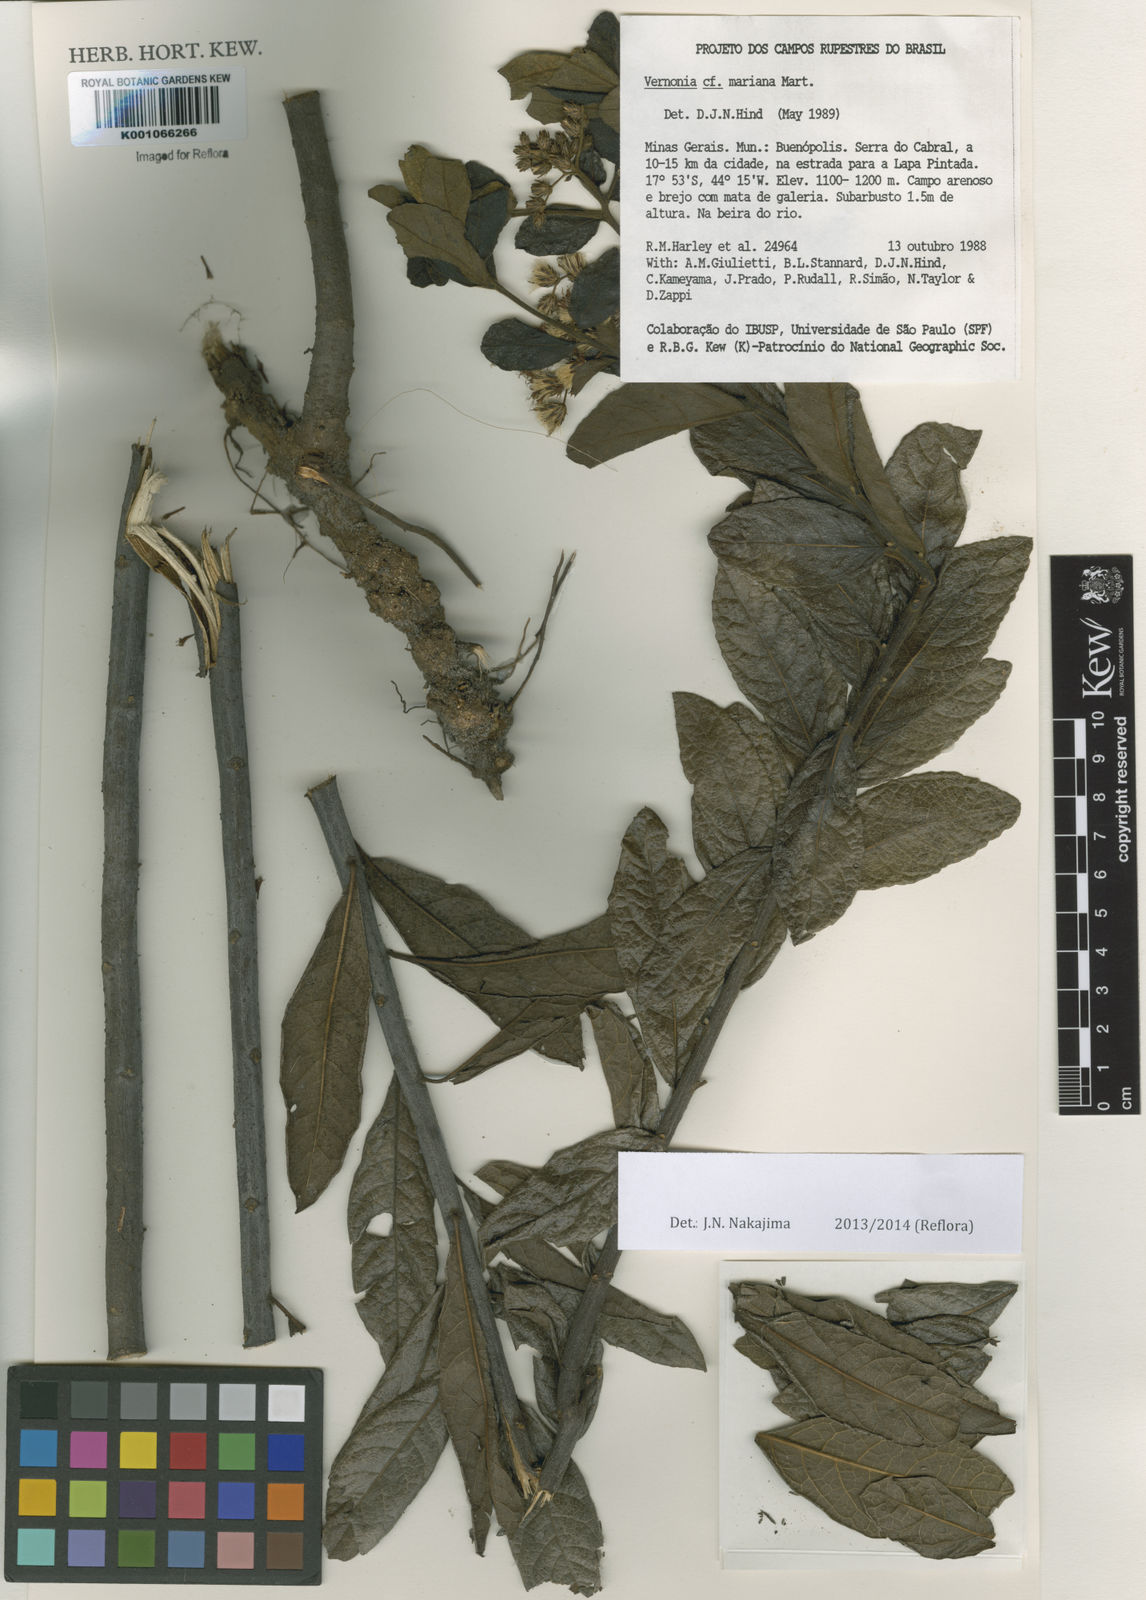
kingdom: Plantae
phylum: Tracheophyta
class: Magnoliopsida
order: Asterales
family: Asteraceae
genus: Vernonia
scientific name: Vernonia
